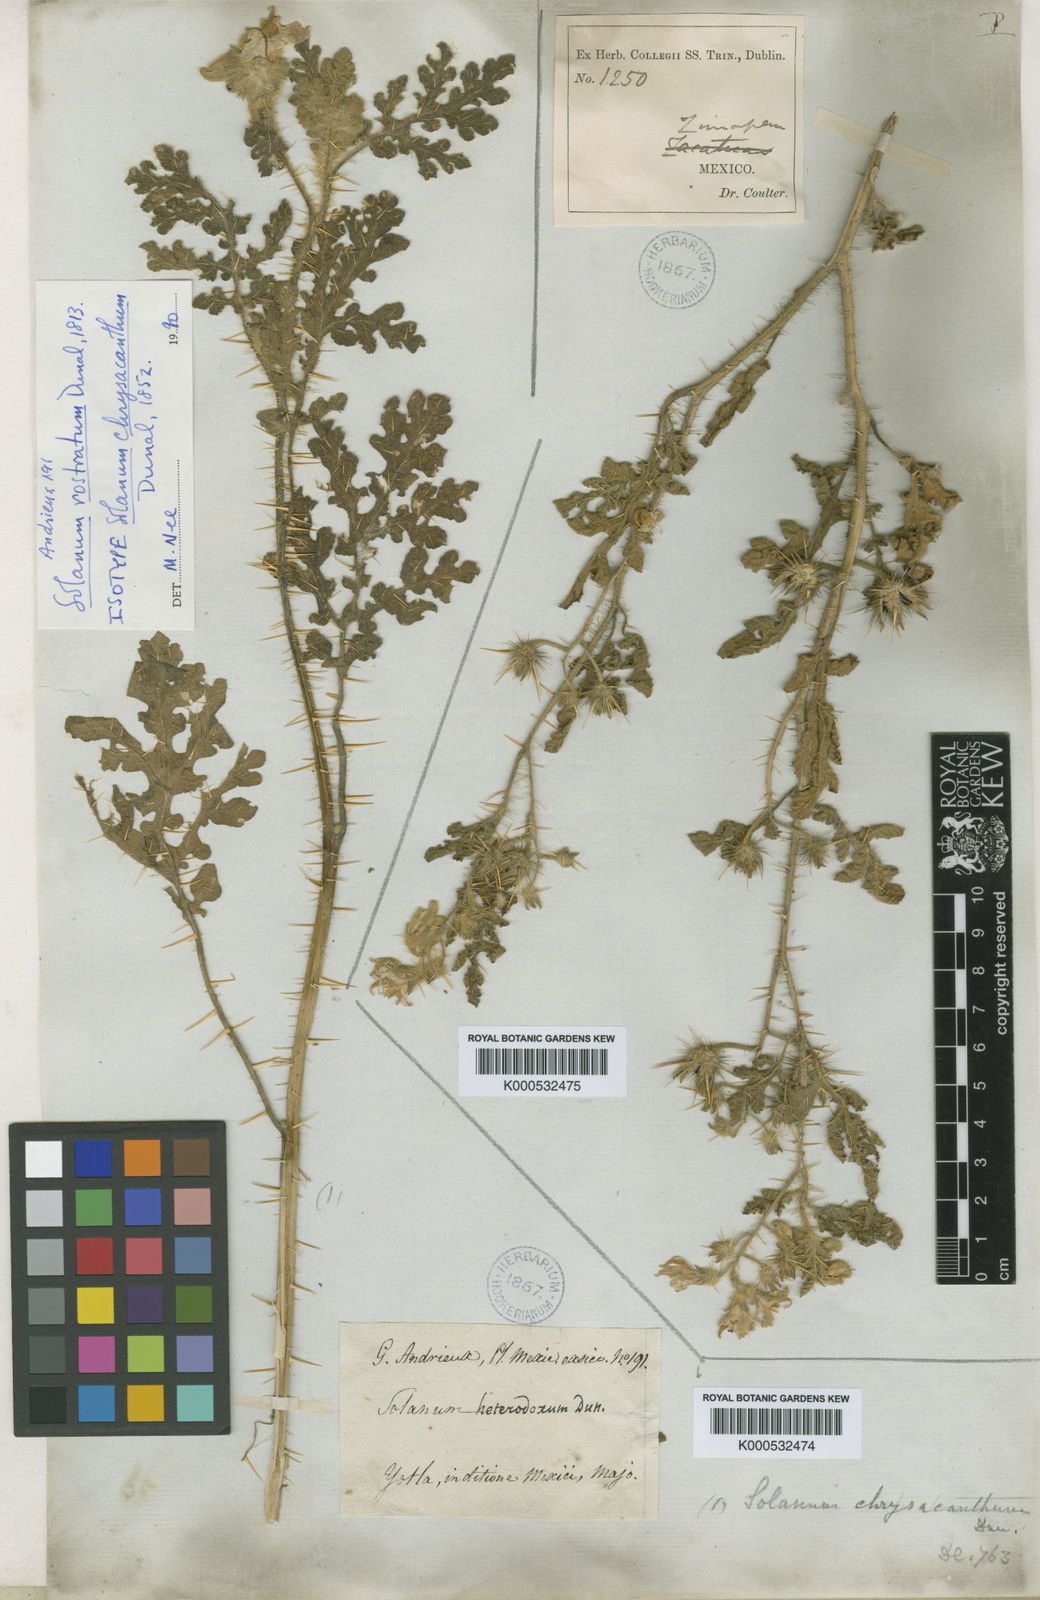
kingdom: Plantae
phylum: Tracheophyta
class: Magnoliopsida
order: Solanales
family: Solanaceae
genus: Solanum
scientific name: Solanum angustifolium
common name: Buffalobur nightshade
